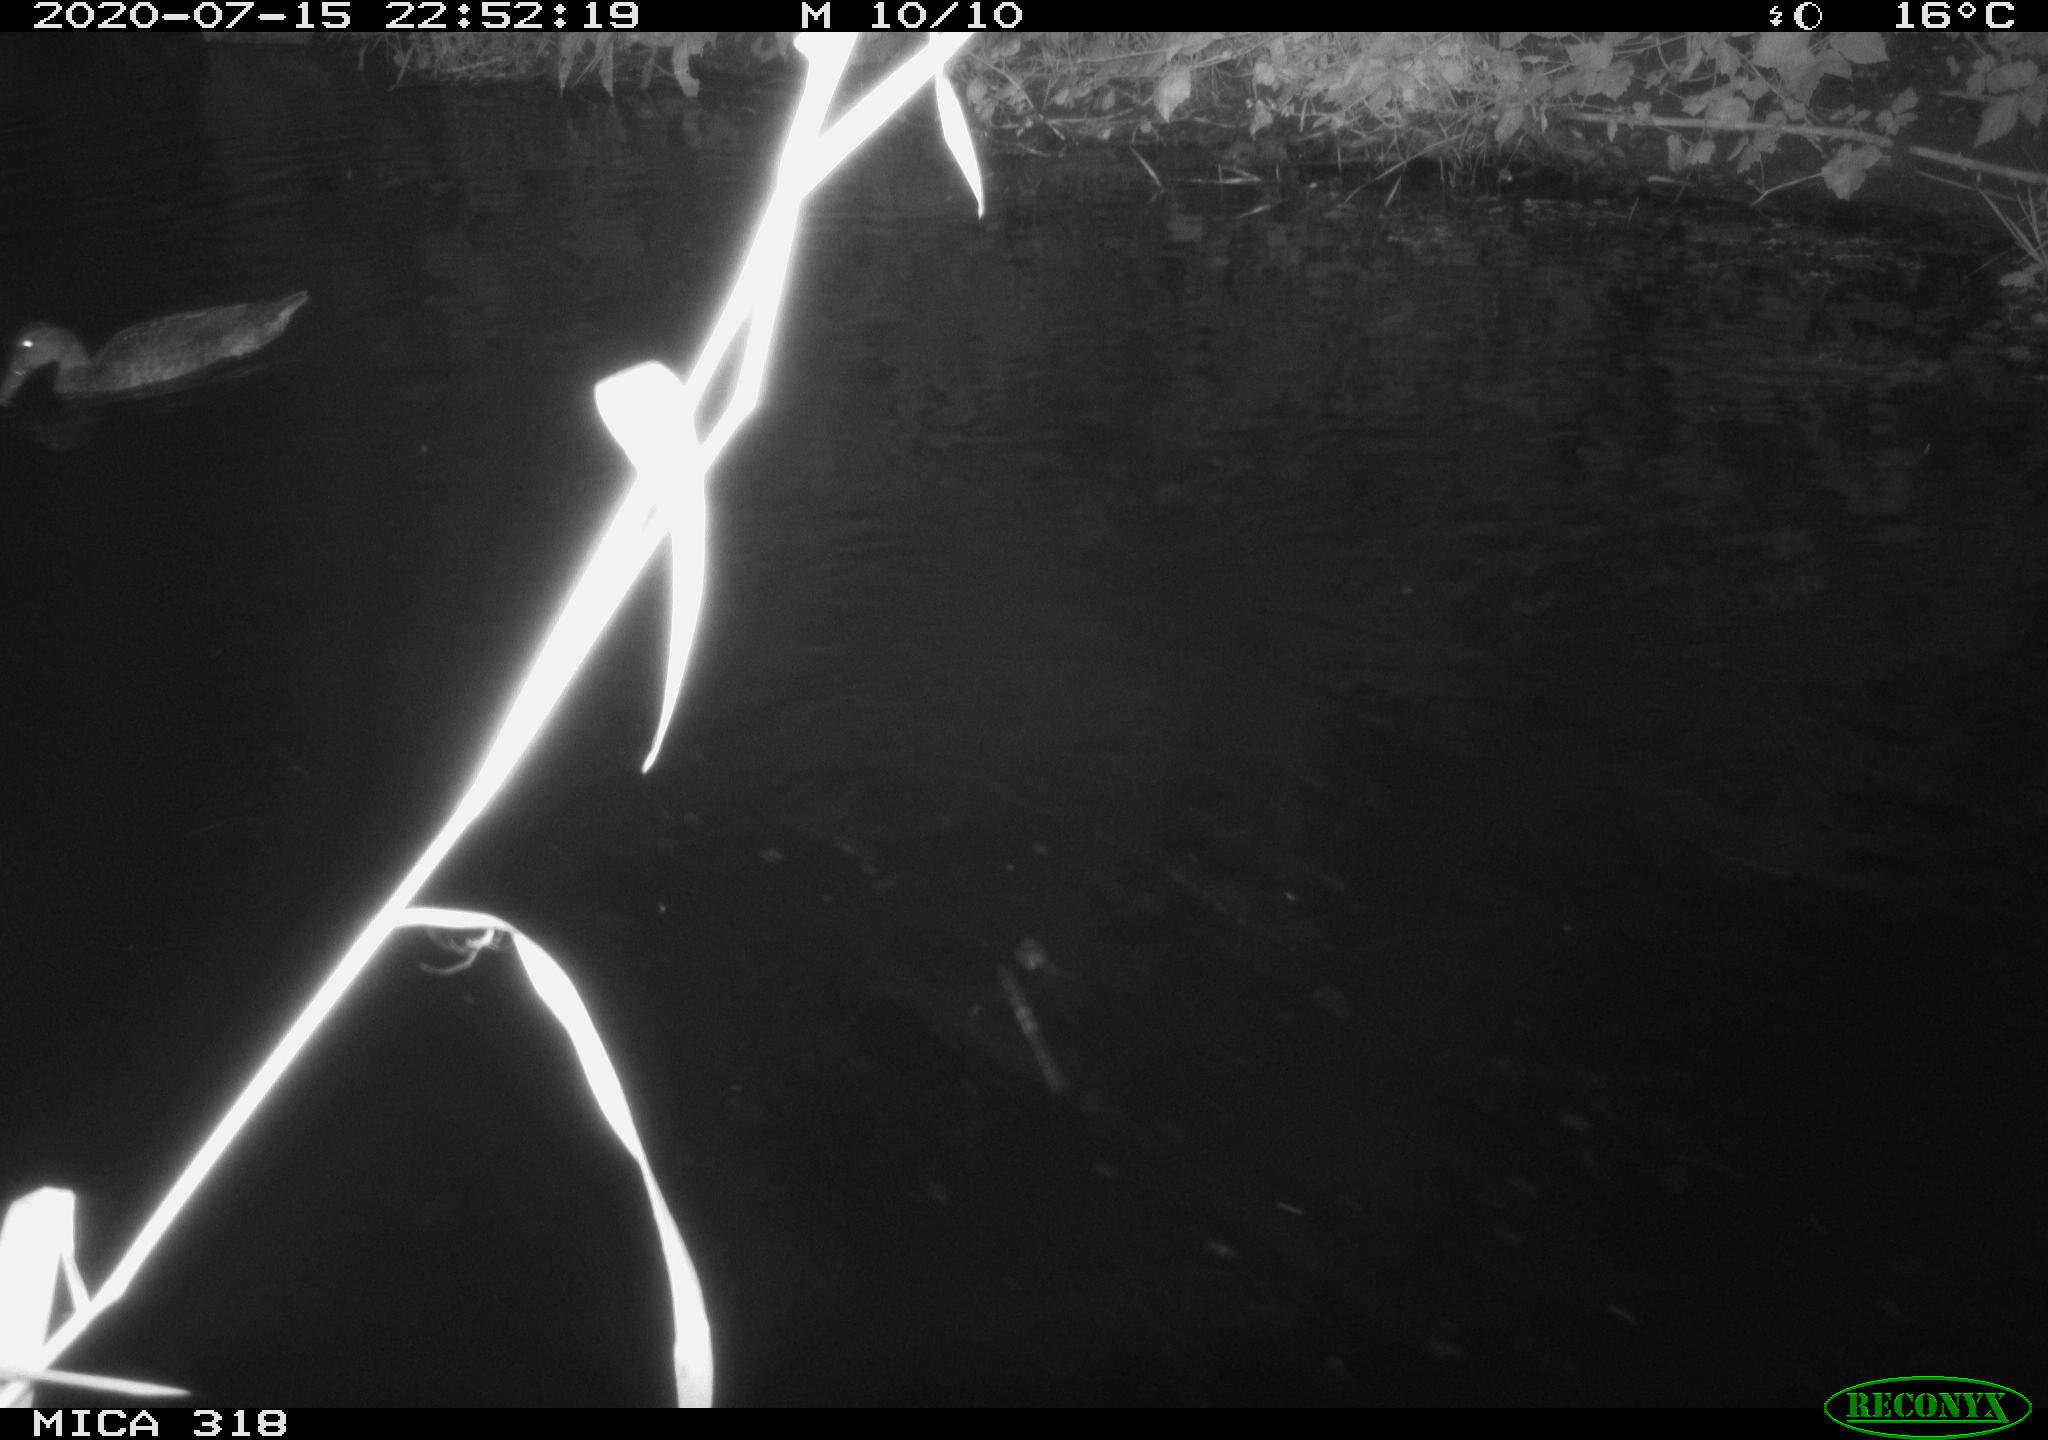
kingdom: Animalia
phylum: Chordata
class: Aves
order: Anseriformes
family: Anatidae
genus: Mareca
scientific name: Mareca strepera
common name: Gadwall
